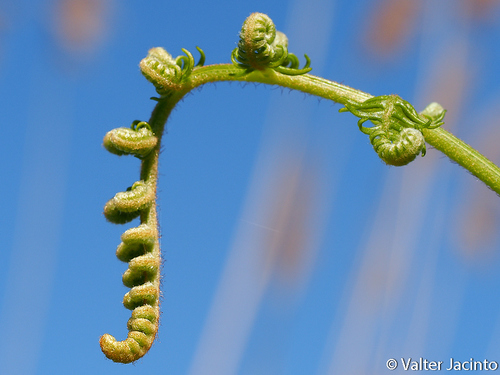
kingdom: Plantae
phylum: Tracheophyta
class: Polypodiopsida
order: Polypodiales
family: Dennstaedtiaceae
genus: Pteridium
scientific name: Pteridium aquilinum
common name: Bracken
